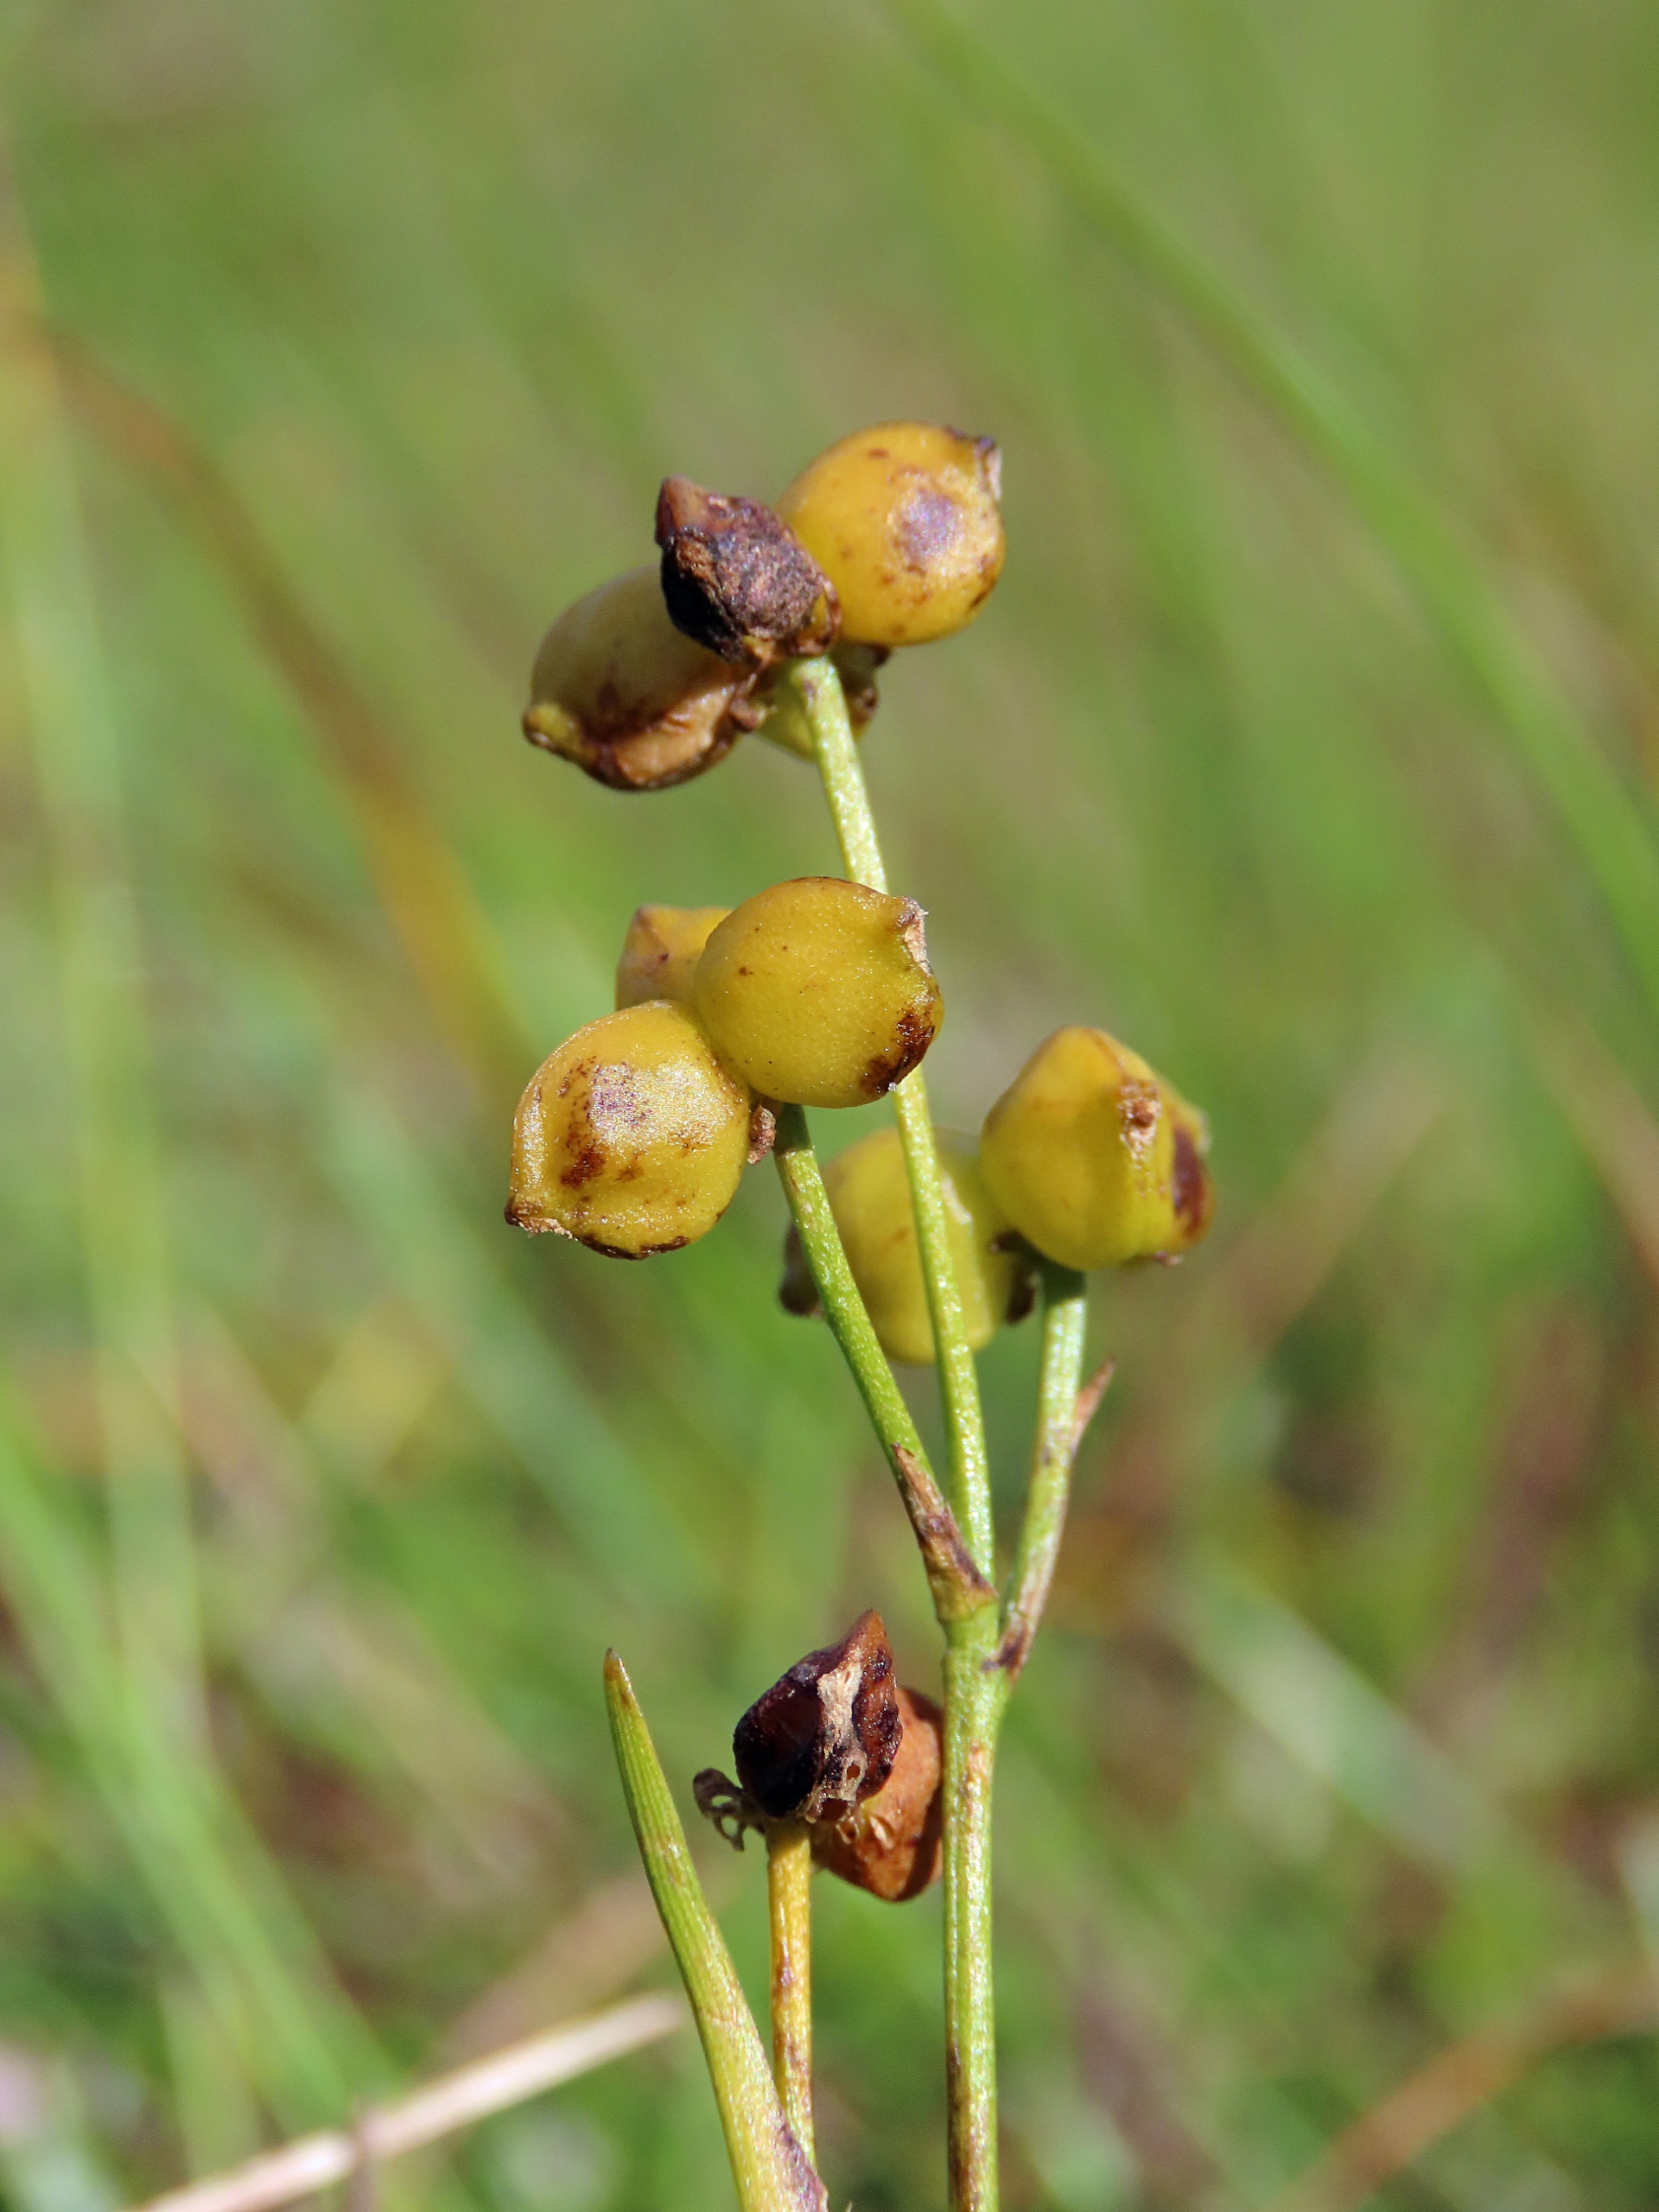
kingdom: Plantae
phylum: Tracheophyta
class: Liliopsida
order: Alismatales
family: Scheuchzeriaceae
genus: Scheuchzeria
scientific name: Scheuchzeria palustris
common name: Blomstersiv
